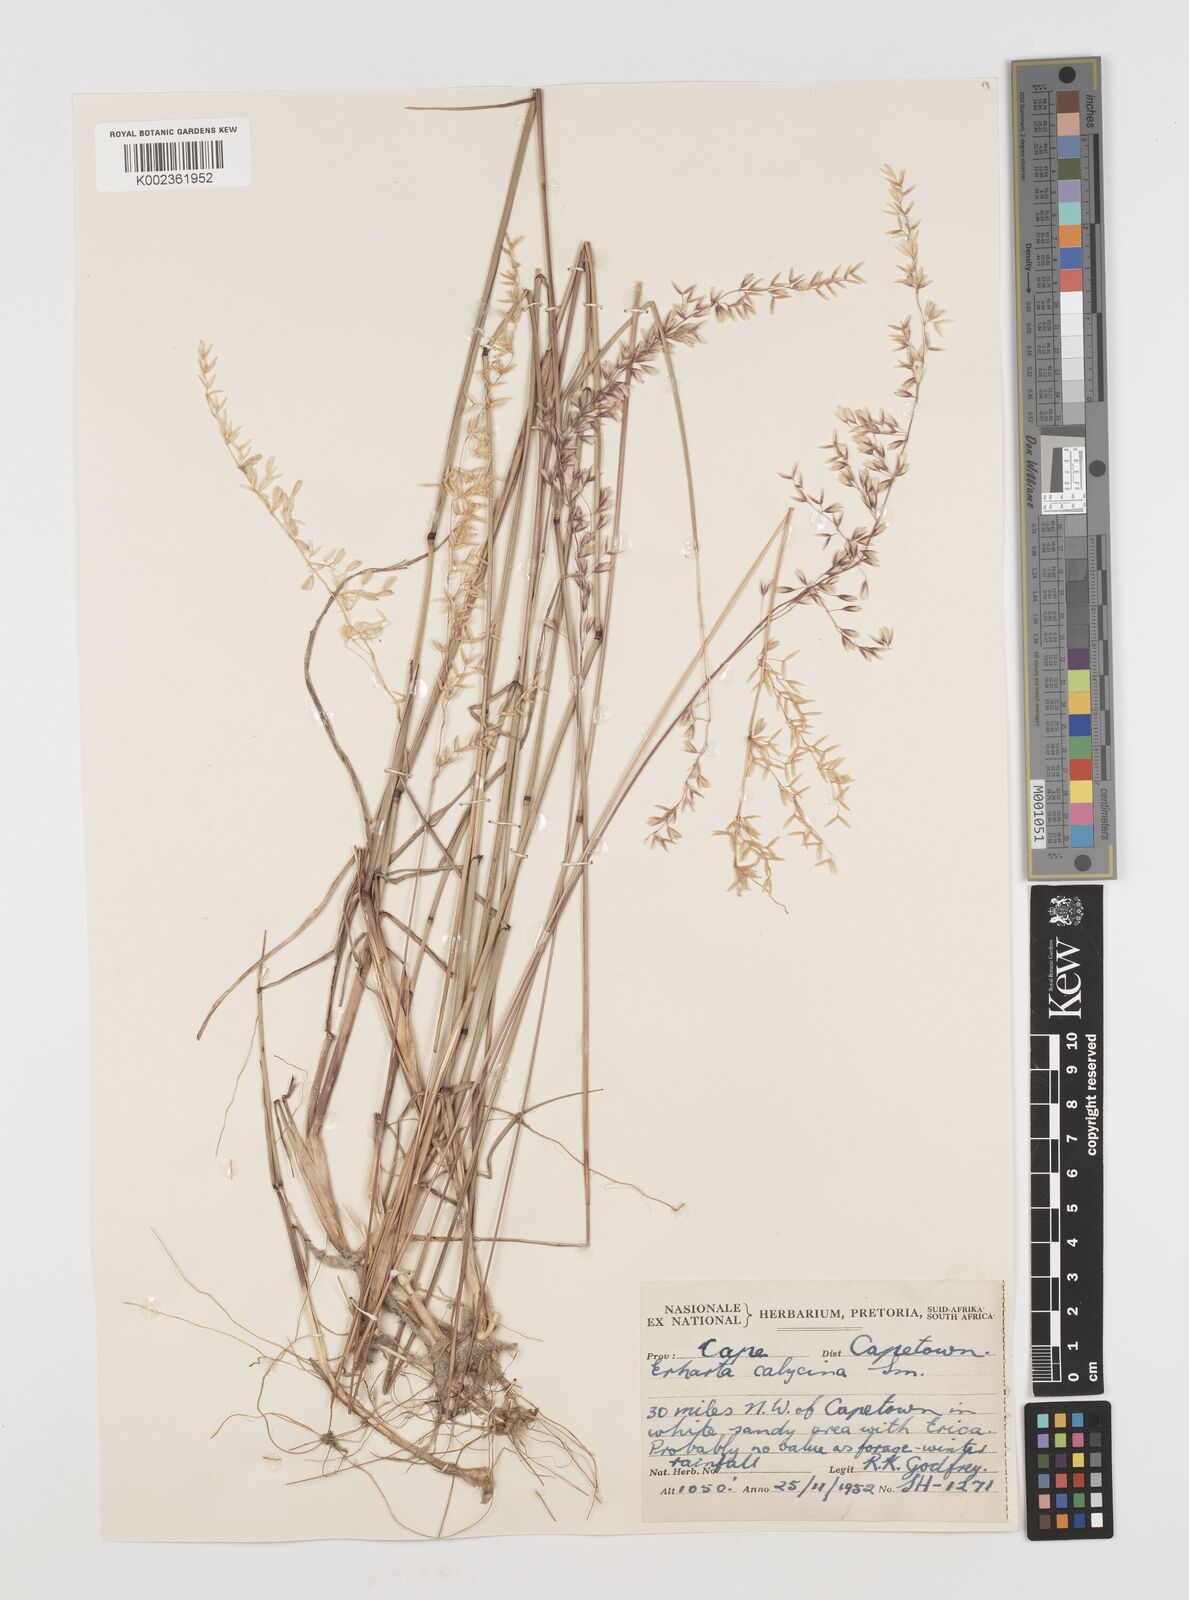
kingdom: Plantae
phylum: Tracheophyta
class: Liliopsida
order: Poales
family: Poaceae
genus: Ehrharta
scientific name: Ehrharta calycina
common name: Perennial veldtgrass
